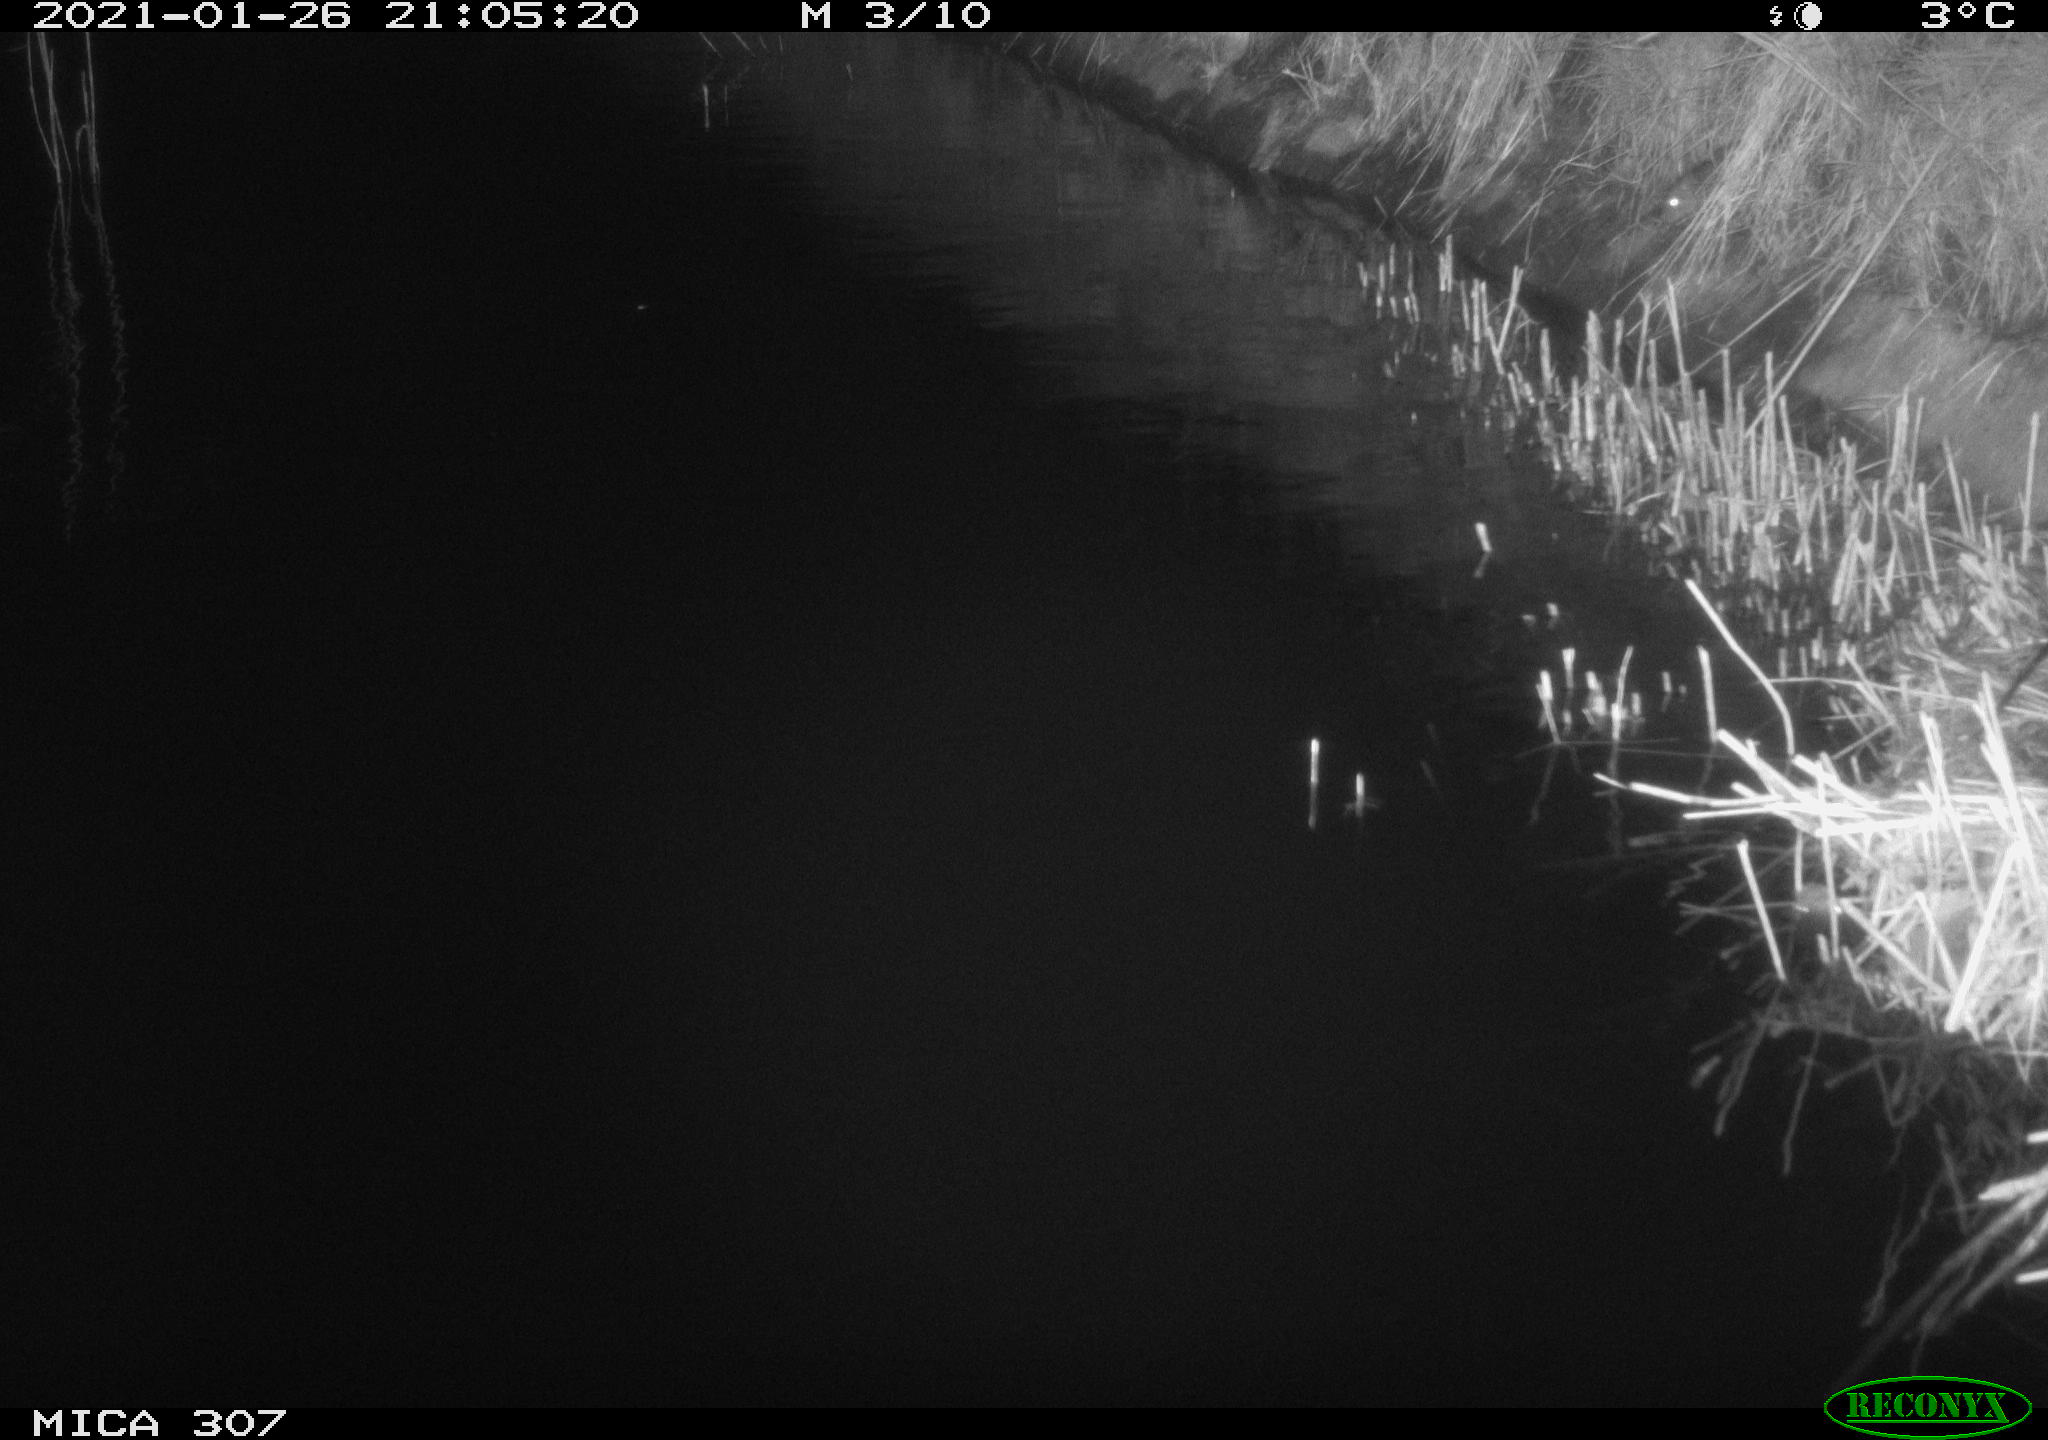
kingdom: Animalia
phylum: Chordata
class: Mammalia
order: Rodentia
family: Cricetidae
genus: Ondatra
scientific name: Ondatra zibethicus
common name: Muskrat
